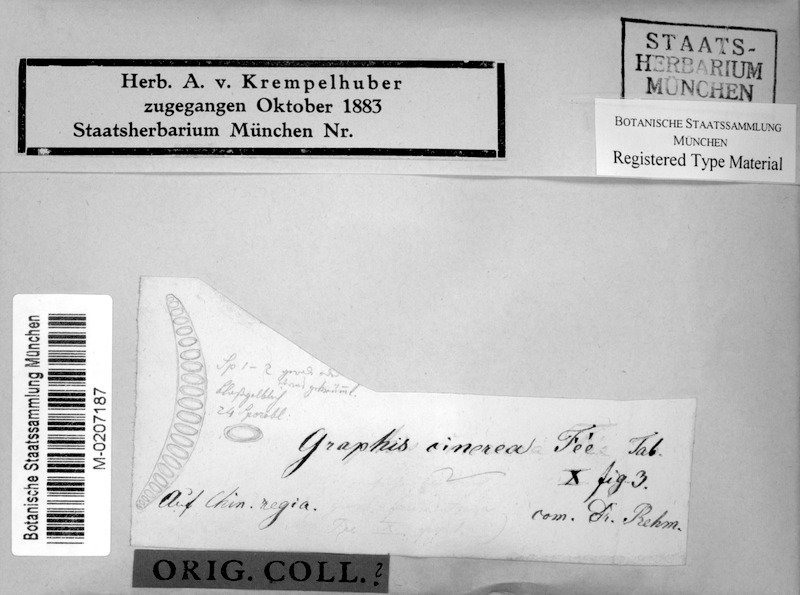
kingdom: Fungi
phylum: Ascomycota
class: Lecanoromycetes
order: Ostropales
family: Graphidaceae
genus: Allographa
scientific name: Allographa cinerea
